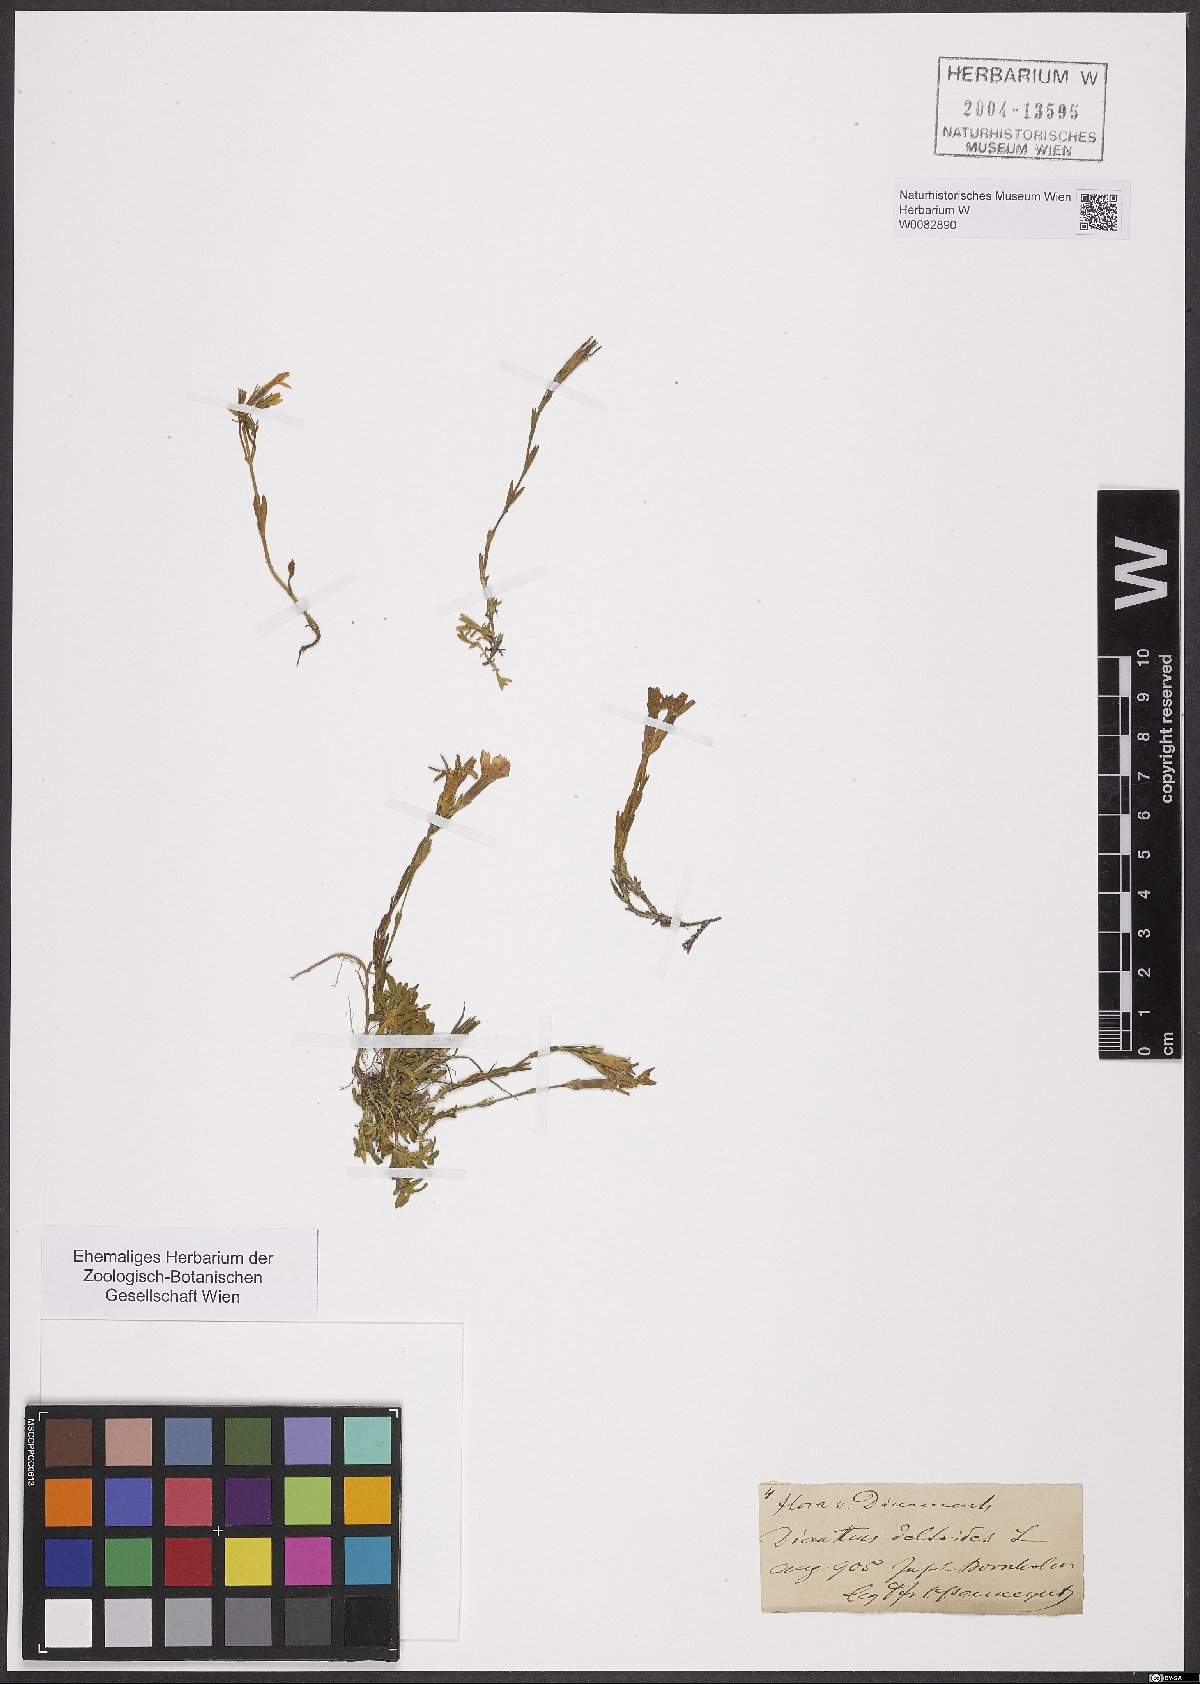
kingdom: Plantae
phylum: Tracheophyta
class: Magnoliopsida
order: Caryophyllales
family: Caryophyllaceae
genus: Dianthus
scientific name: Dianthus deltoides
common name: Maiden pink
